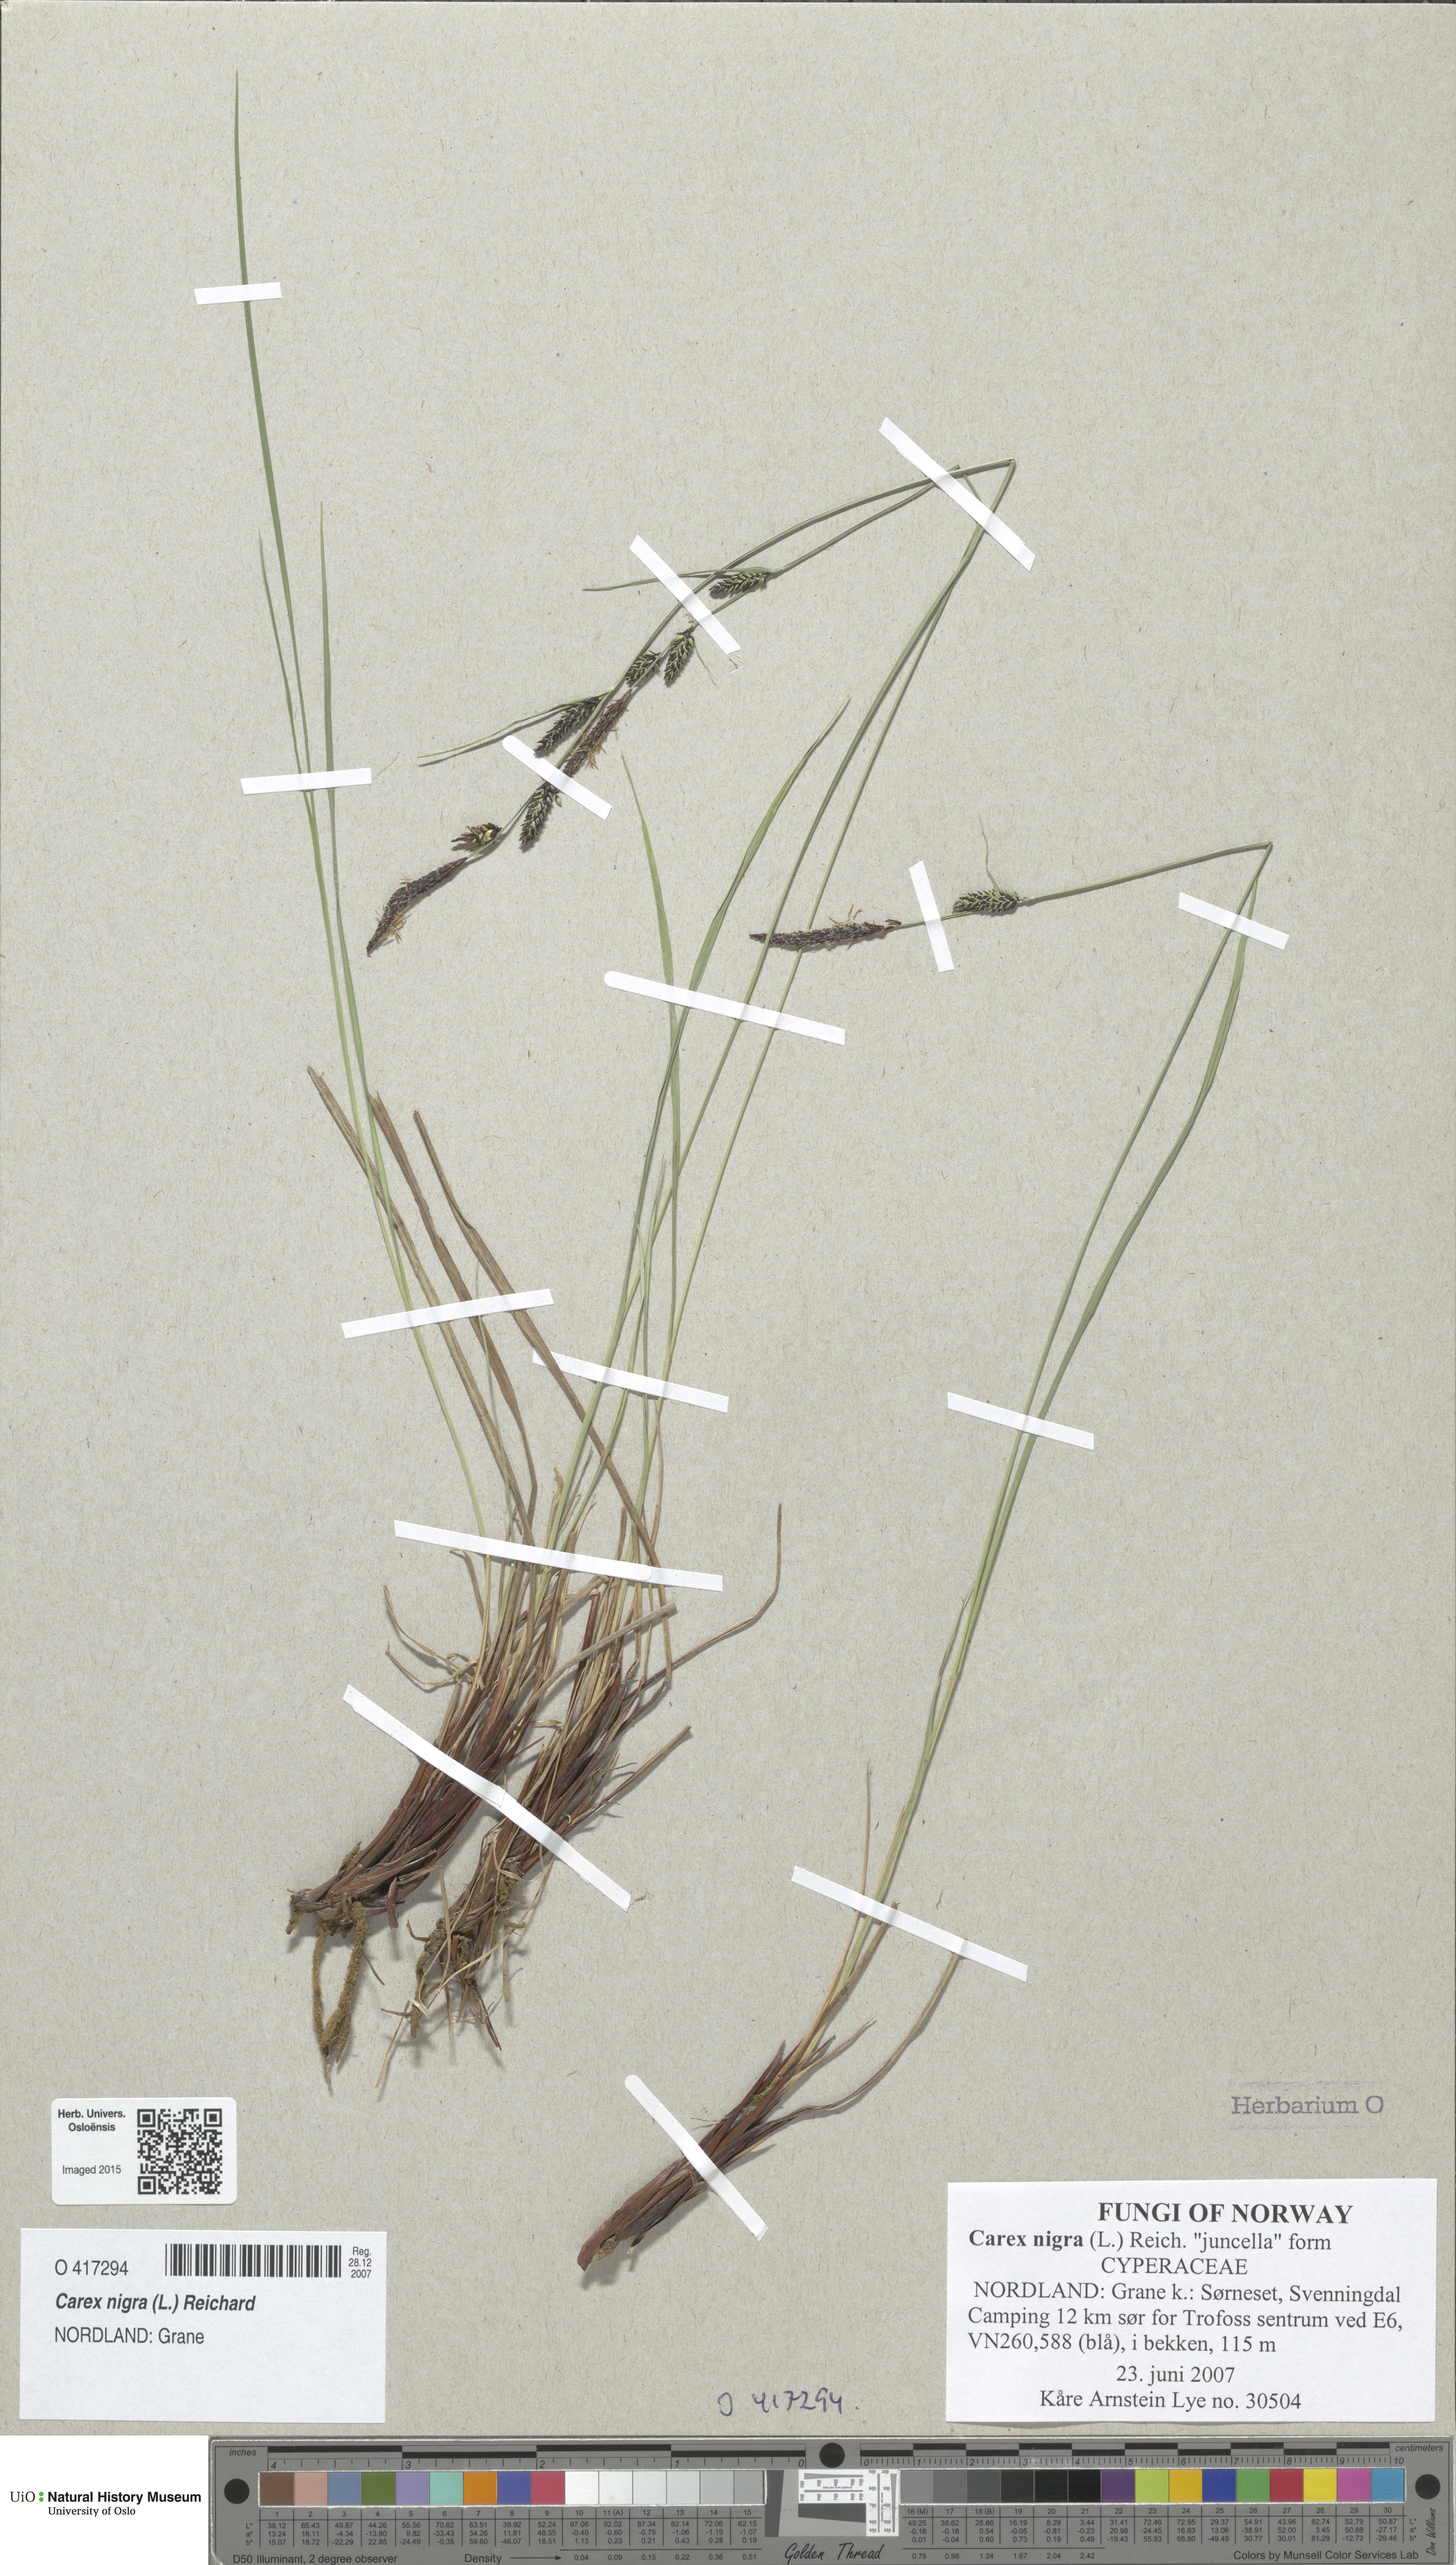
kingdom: Plantae
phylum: Tracheophyta
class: Liliopsida
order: Poales
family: Cyperaceae
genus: Carex
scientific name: Carex nigra
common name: Common sedge
